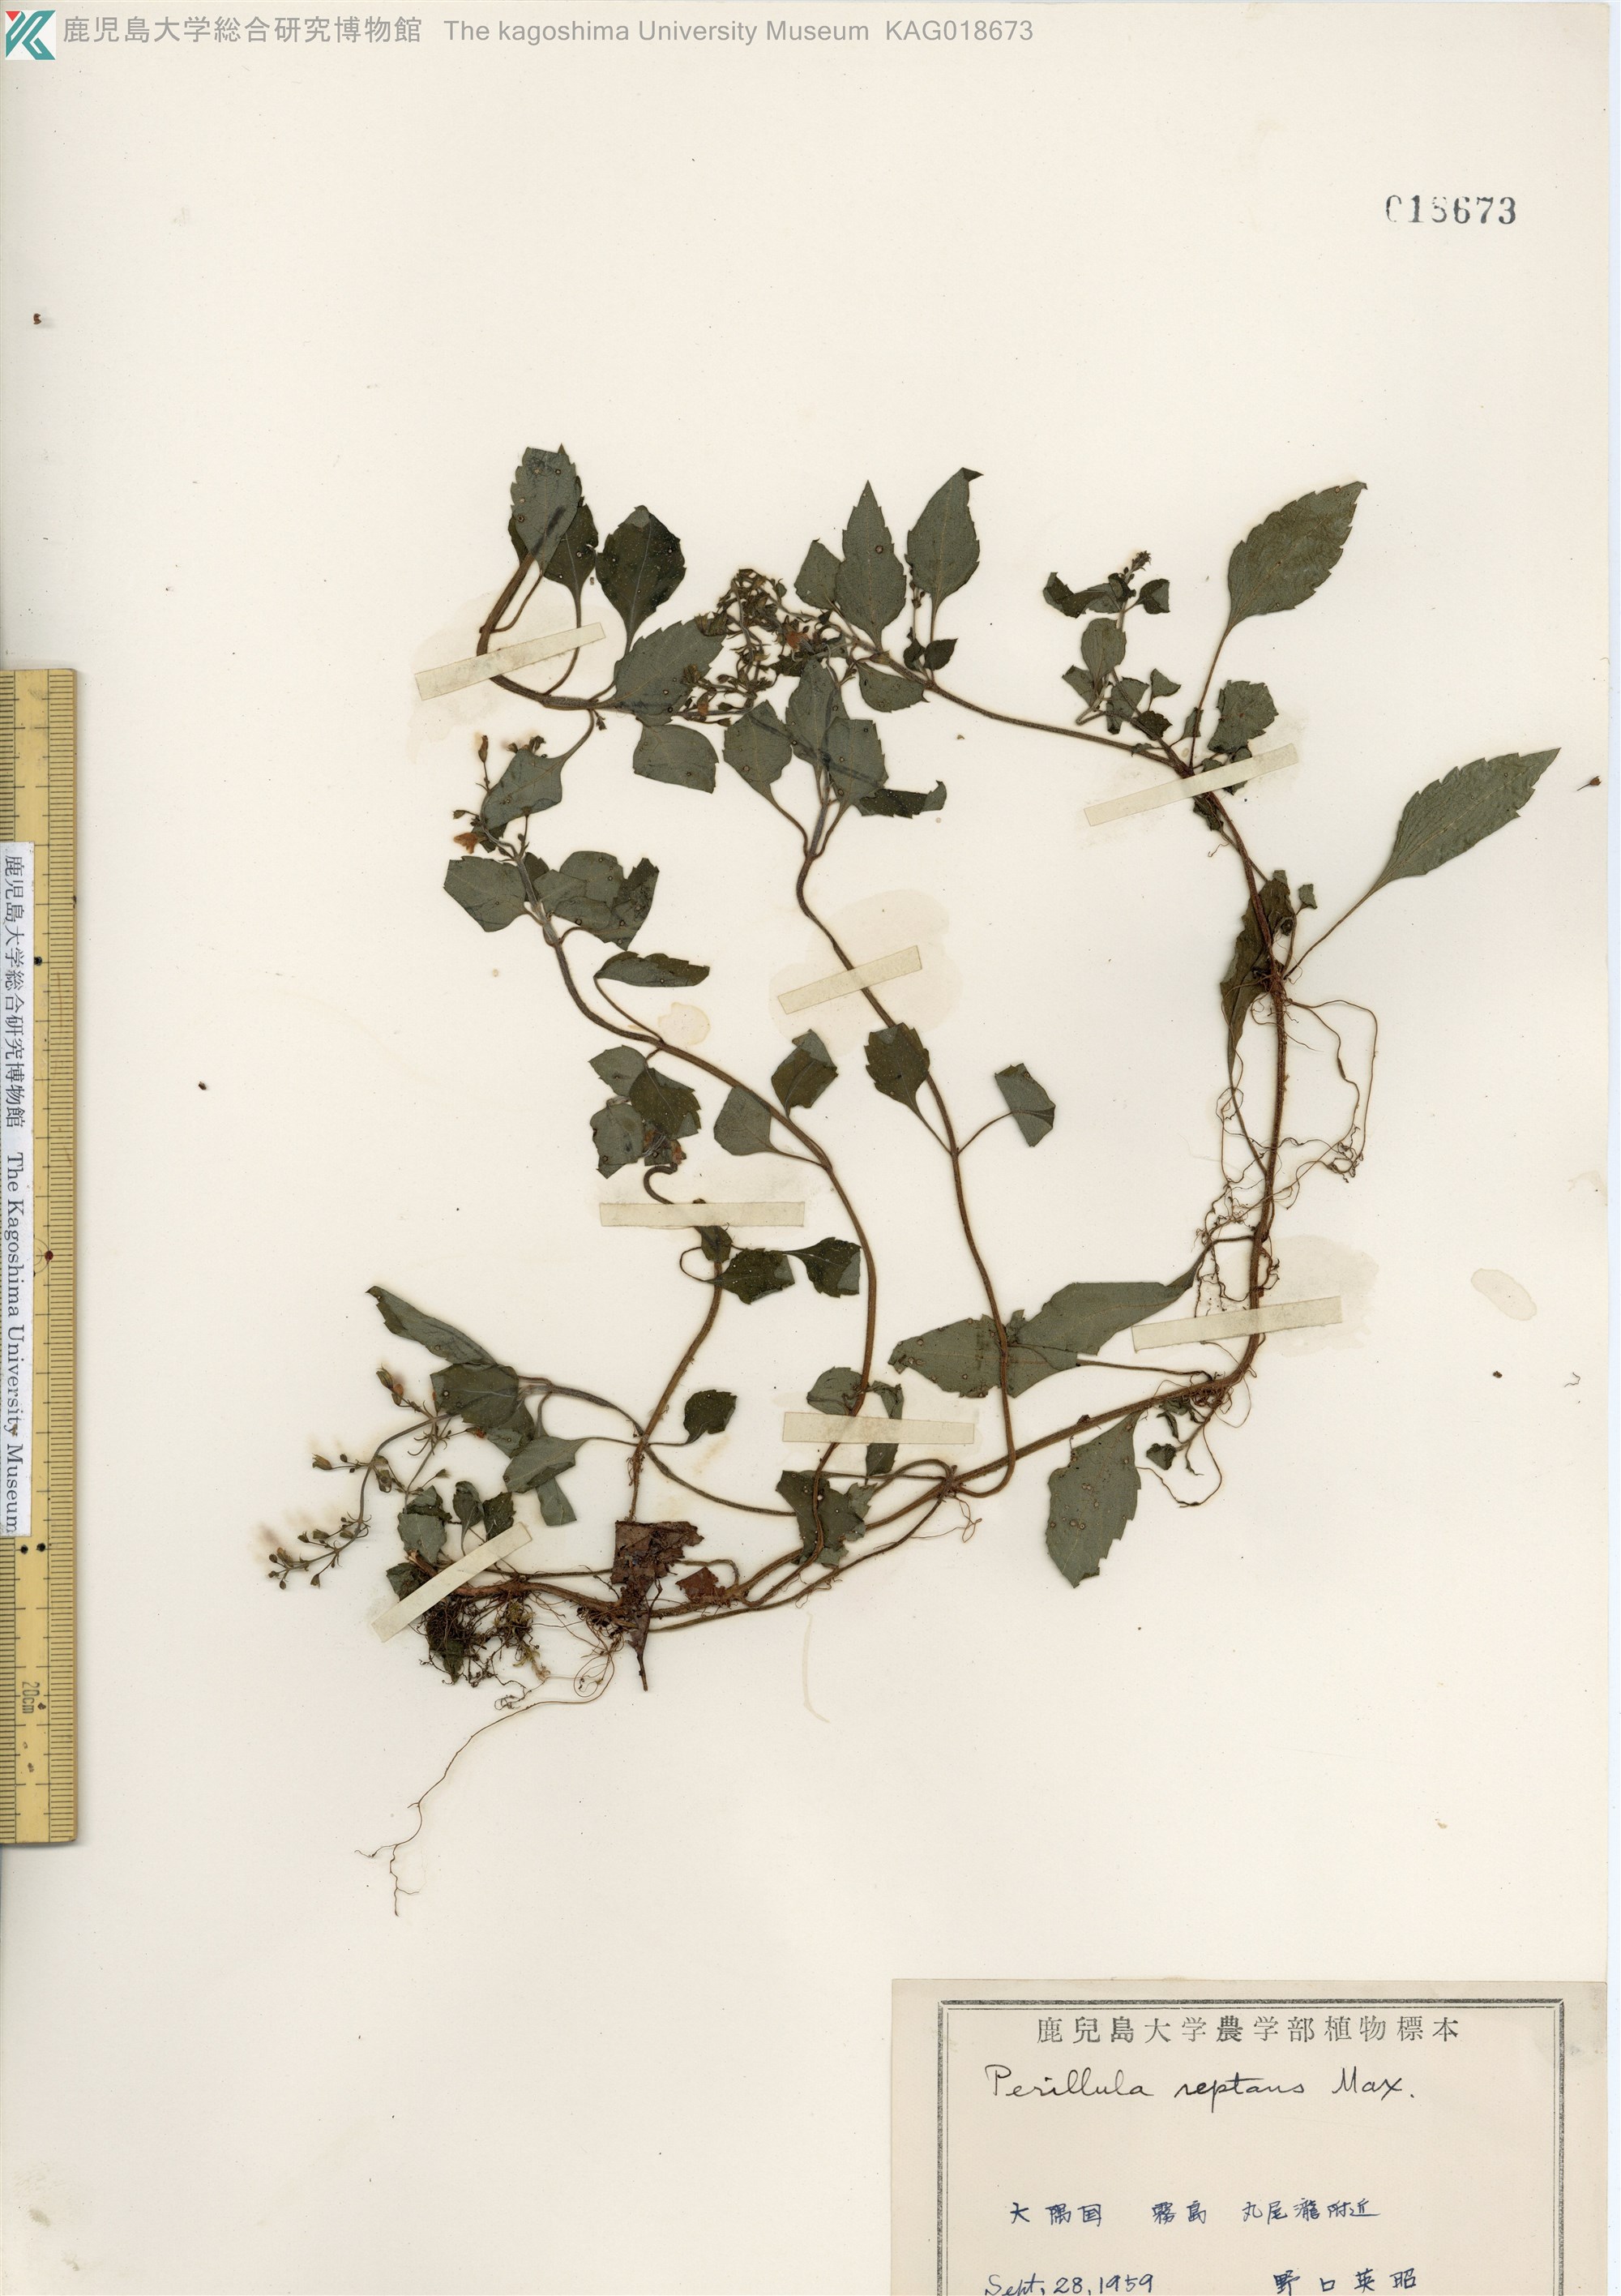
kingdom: Plantae
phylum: Tracheophyta
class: Magnoliopsida
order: Lamiales
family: Lamiaceae
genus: Perillula
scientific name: Perillula reptans
